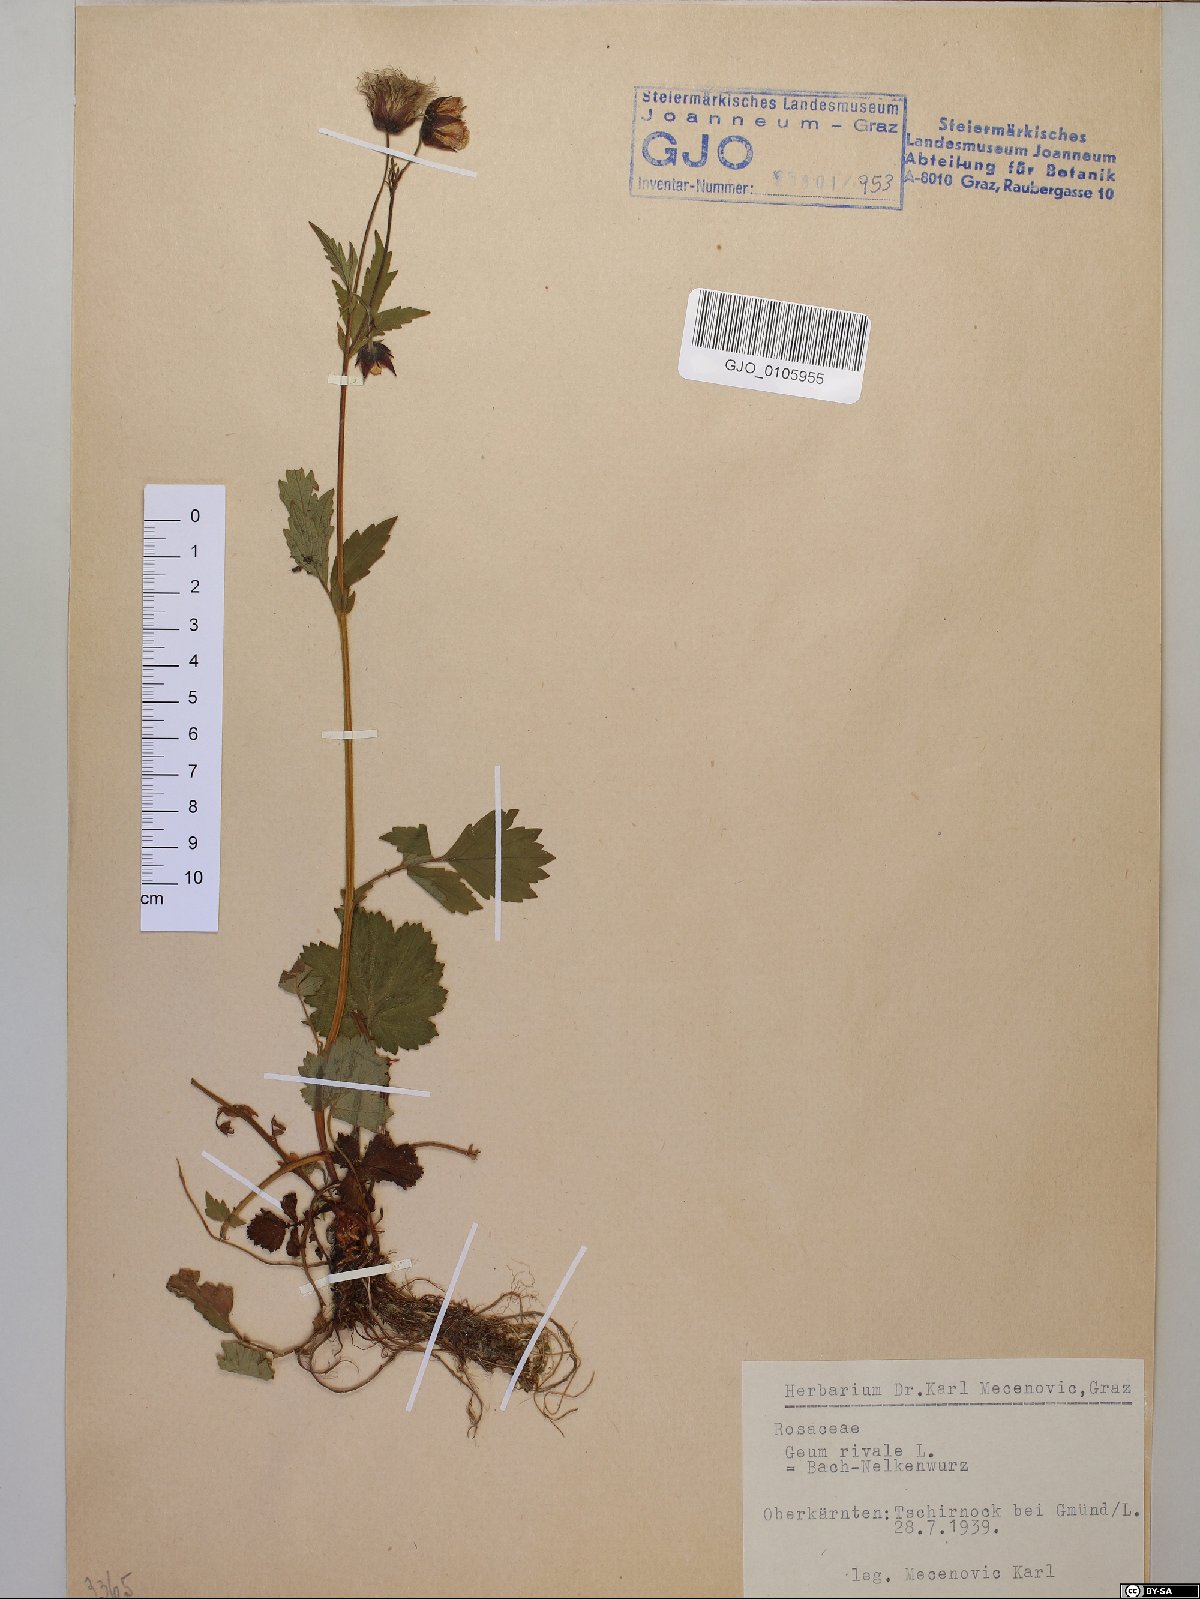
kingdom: Plantae
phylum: Tracheophyta
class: Magnoliopsida
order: Rosales
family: Rosaceae
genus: Geum
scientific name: Geum rivale
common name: Water avens
